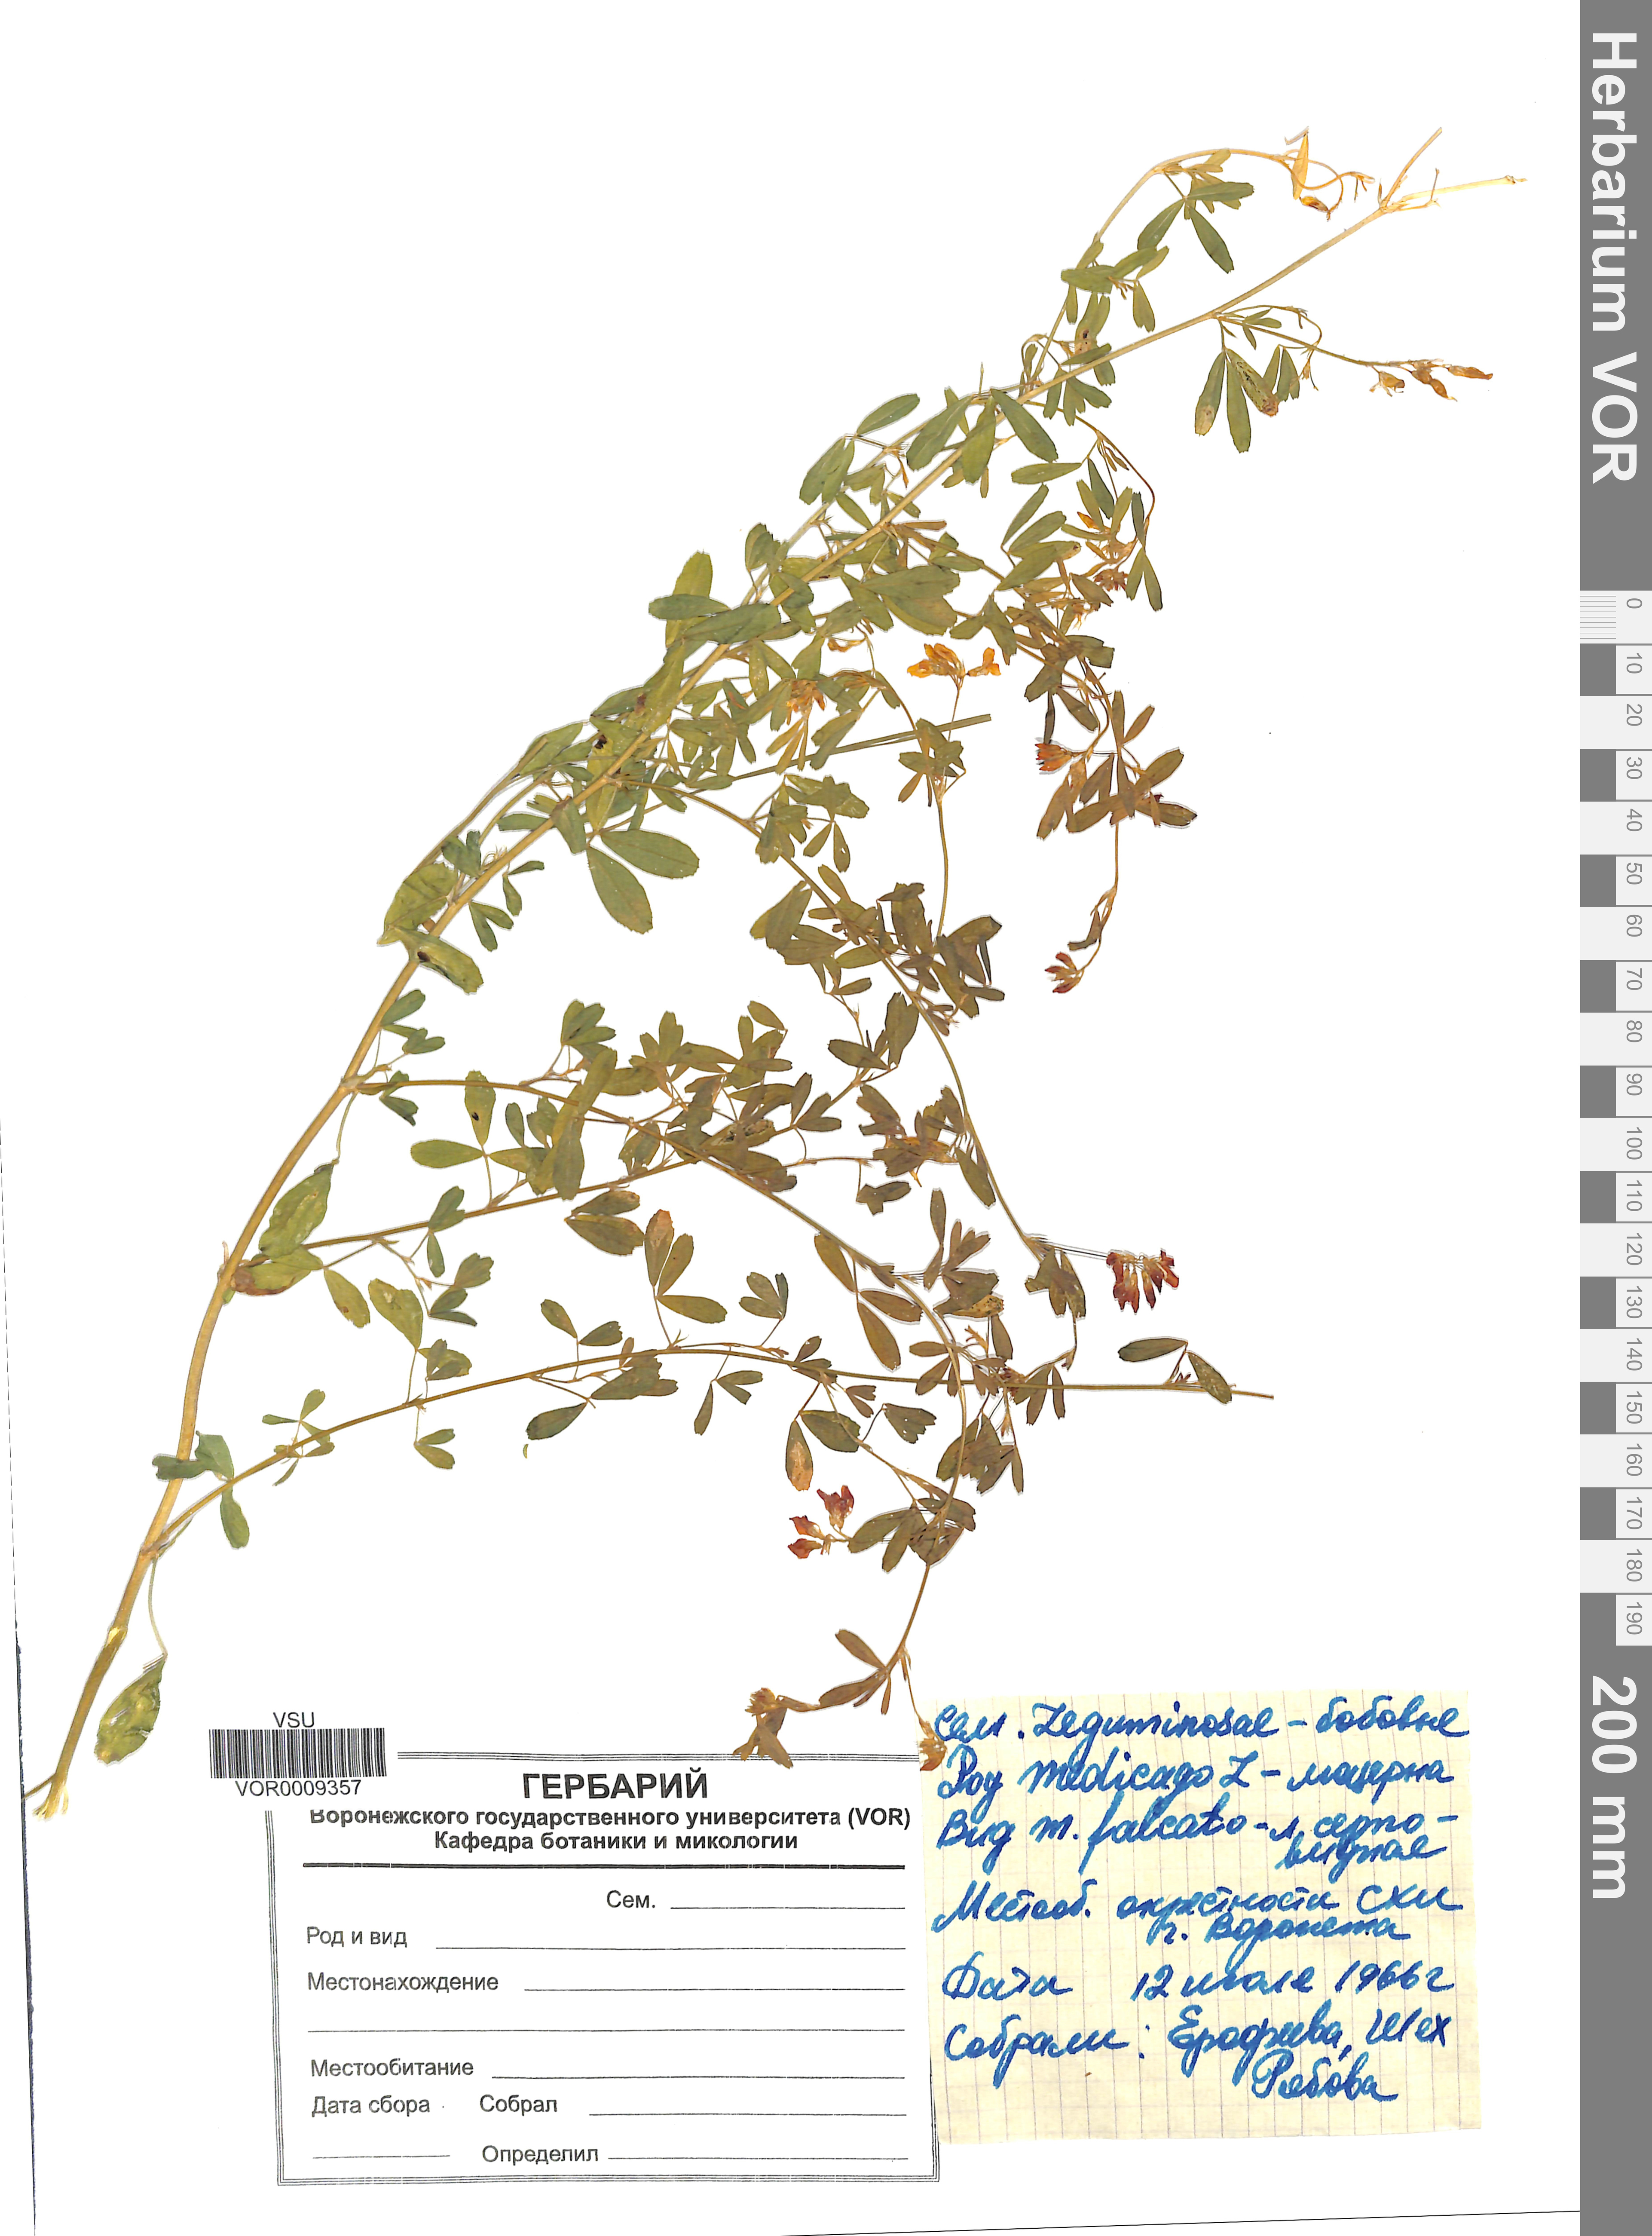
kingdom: Plantae
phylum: Tracheophyta
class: Magnoliopsida
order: Fabales
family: Fabaceae
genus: Medicago
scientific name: Medicago falcata
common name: Sickle medick
